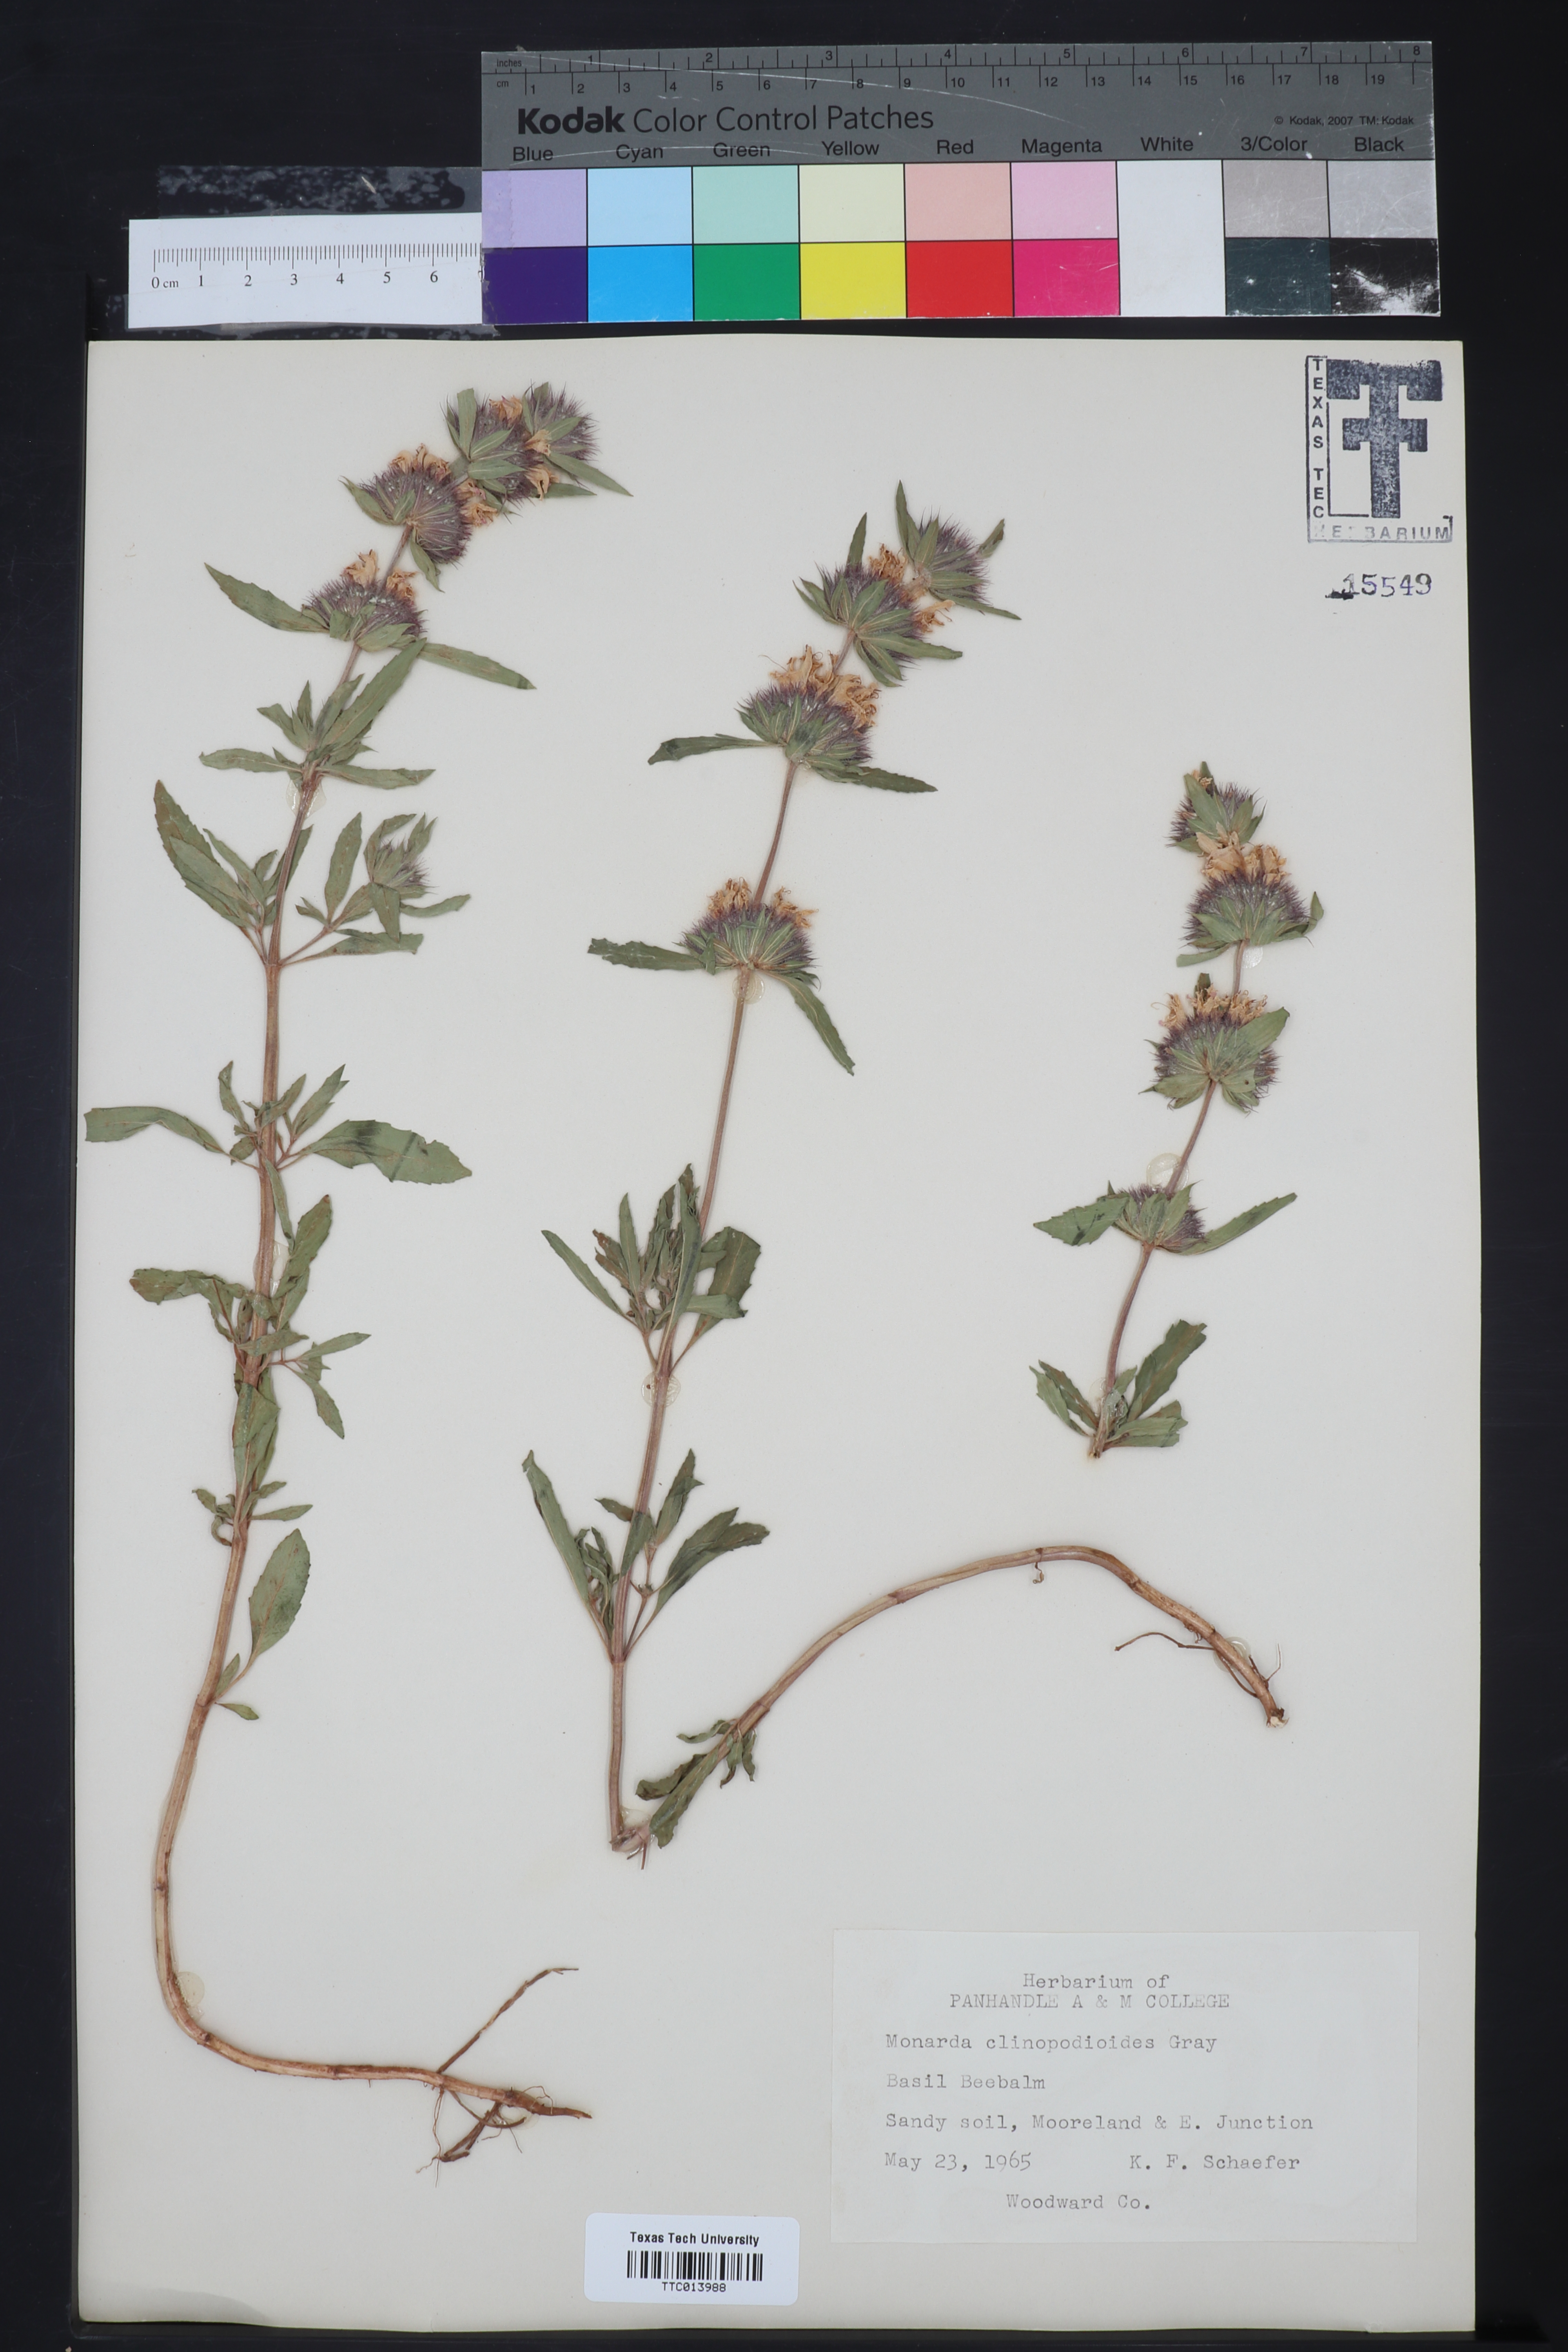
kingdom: Plantae
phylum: Tracheophyta
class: Magnoliopsida
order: Lamiales
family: Lamiaceae
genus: Monarda
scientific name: Monarda clinopodioides
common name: Basil beebalm
